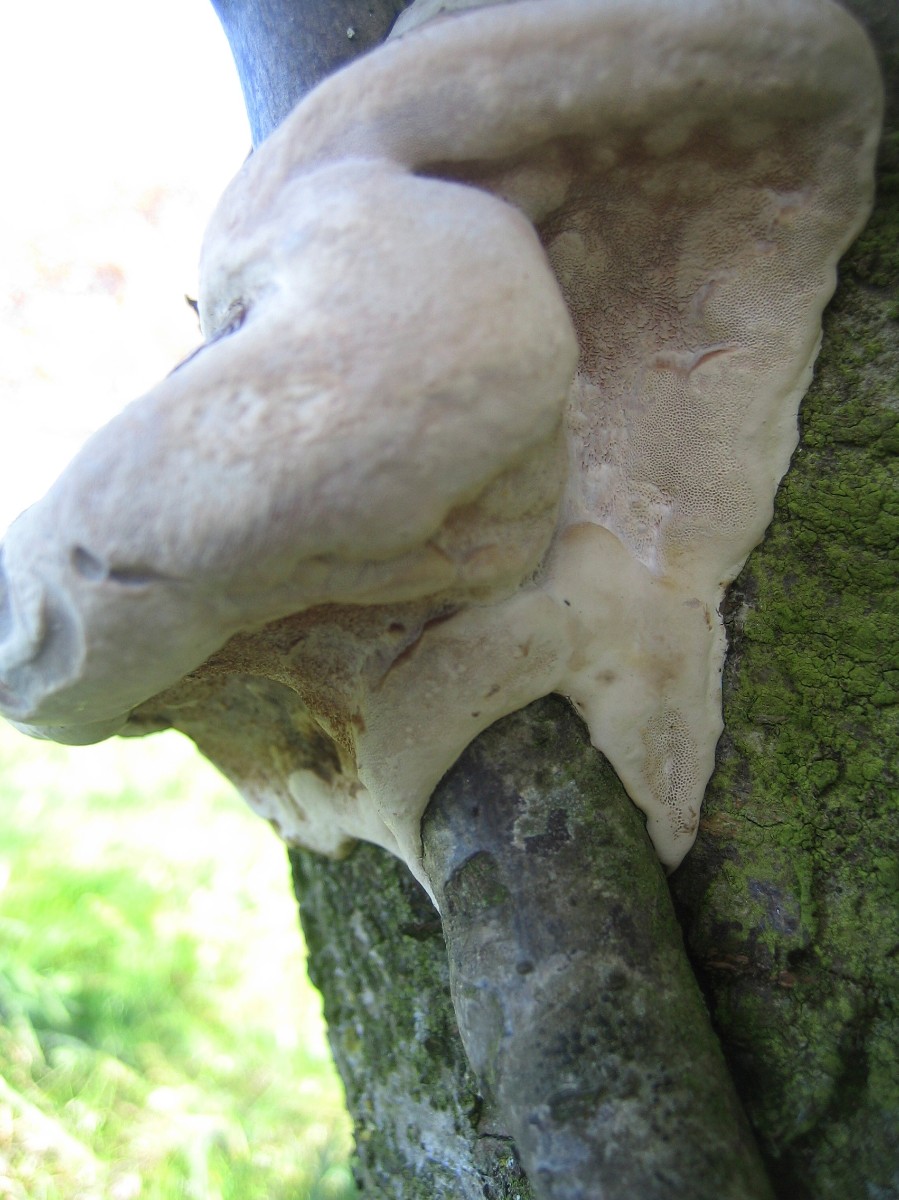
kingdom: Fungi
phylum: Basidiomycota
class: Agaricomycetes
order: Hymenochaetales
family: Hymenochaetaceae
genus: Phellinus
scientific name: Phellinus pomaceus
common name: blomme-ildporesvamp
